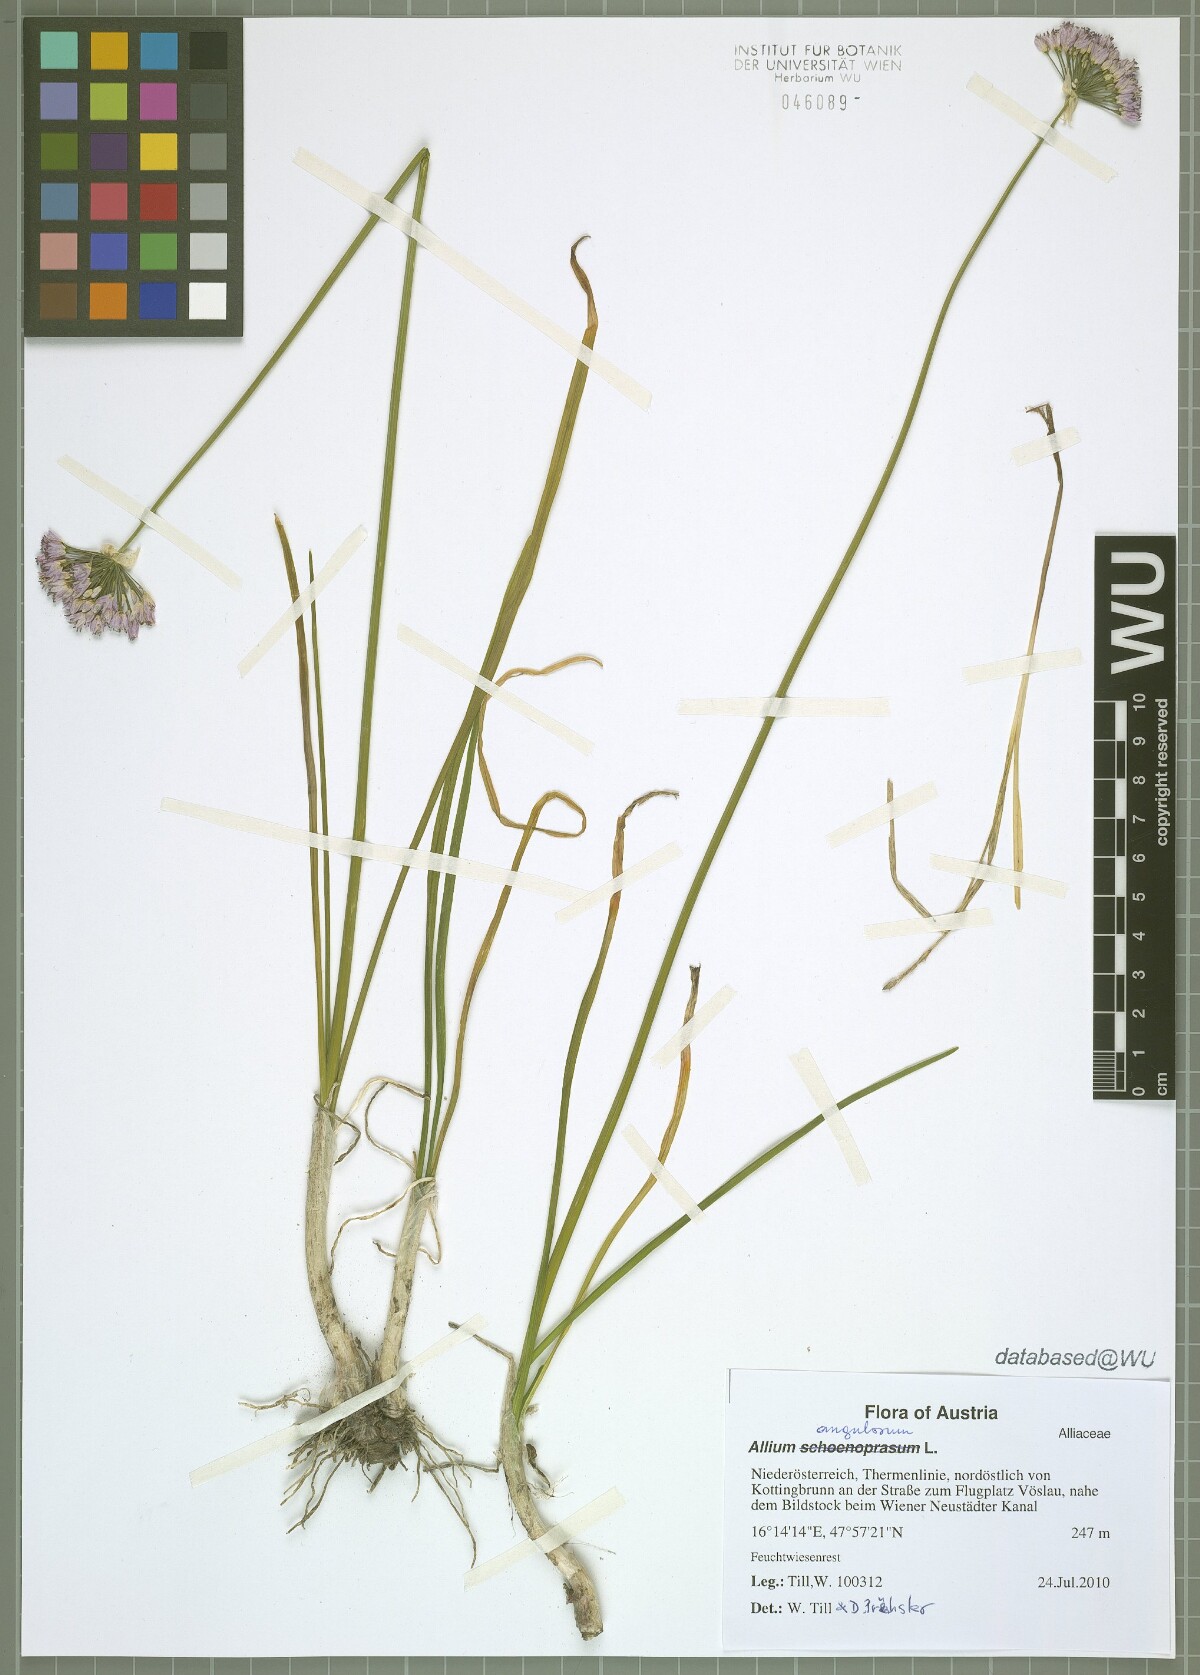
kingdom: Plantae
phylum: Tracheophyta
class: Liliopsida
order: Asparagales
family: Amaryllidaceae
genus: Allium
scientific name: Allium angulosum
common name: Mouse garlic
